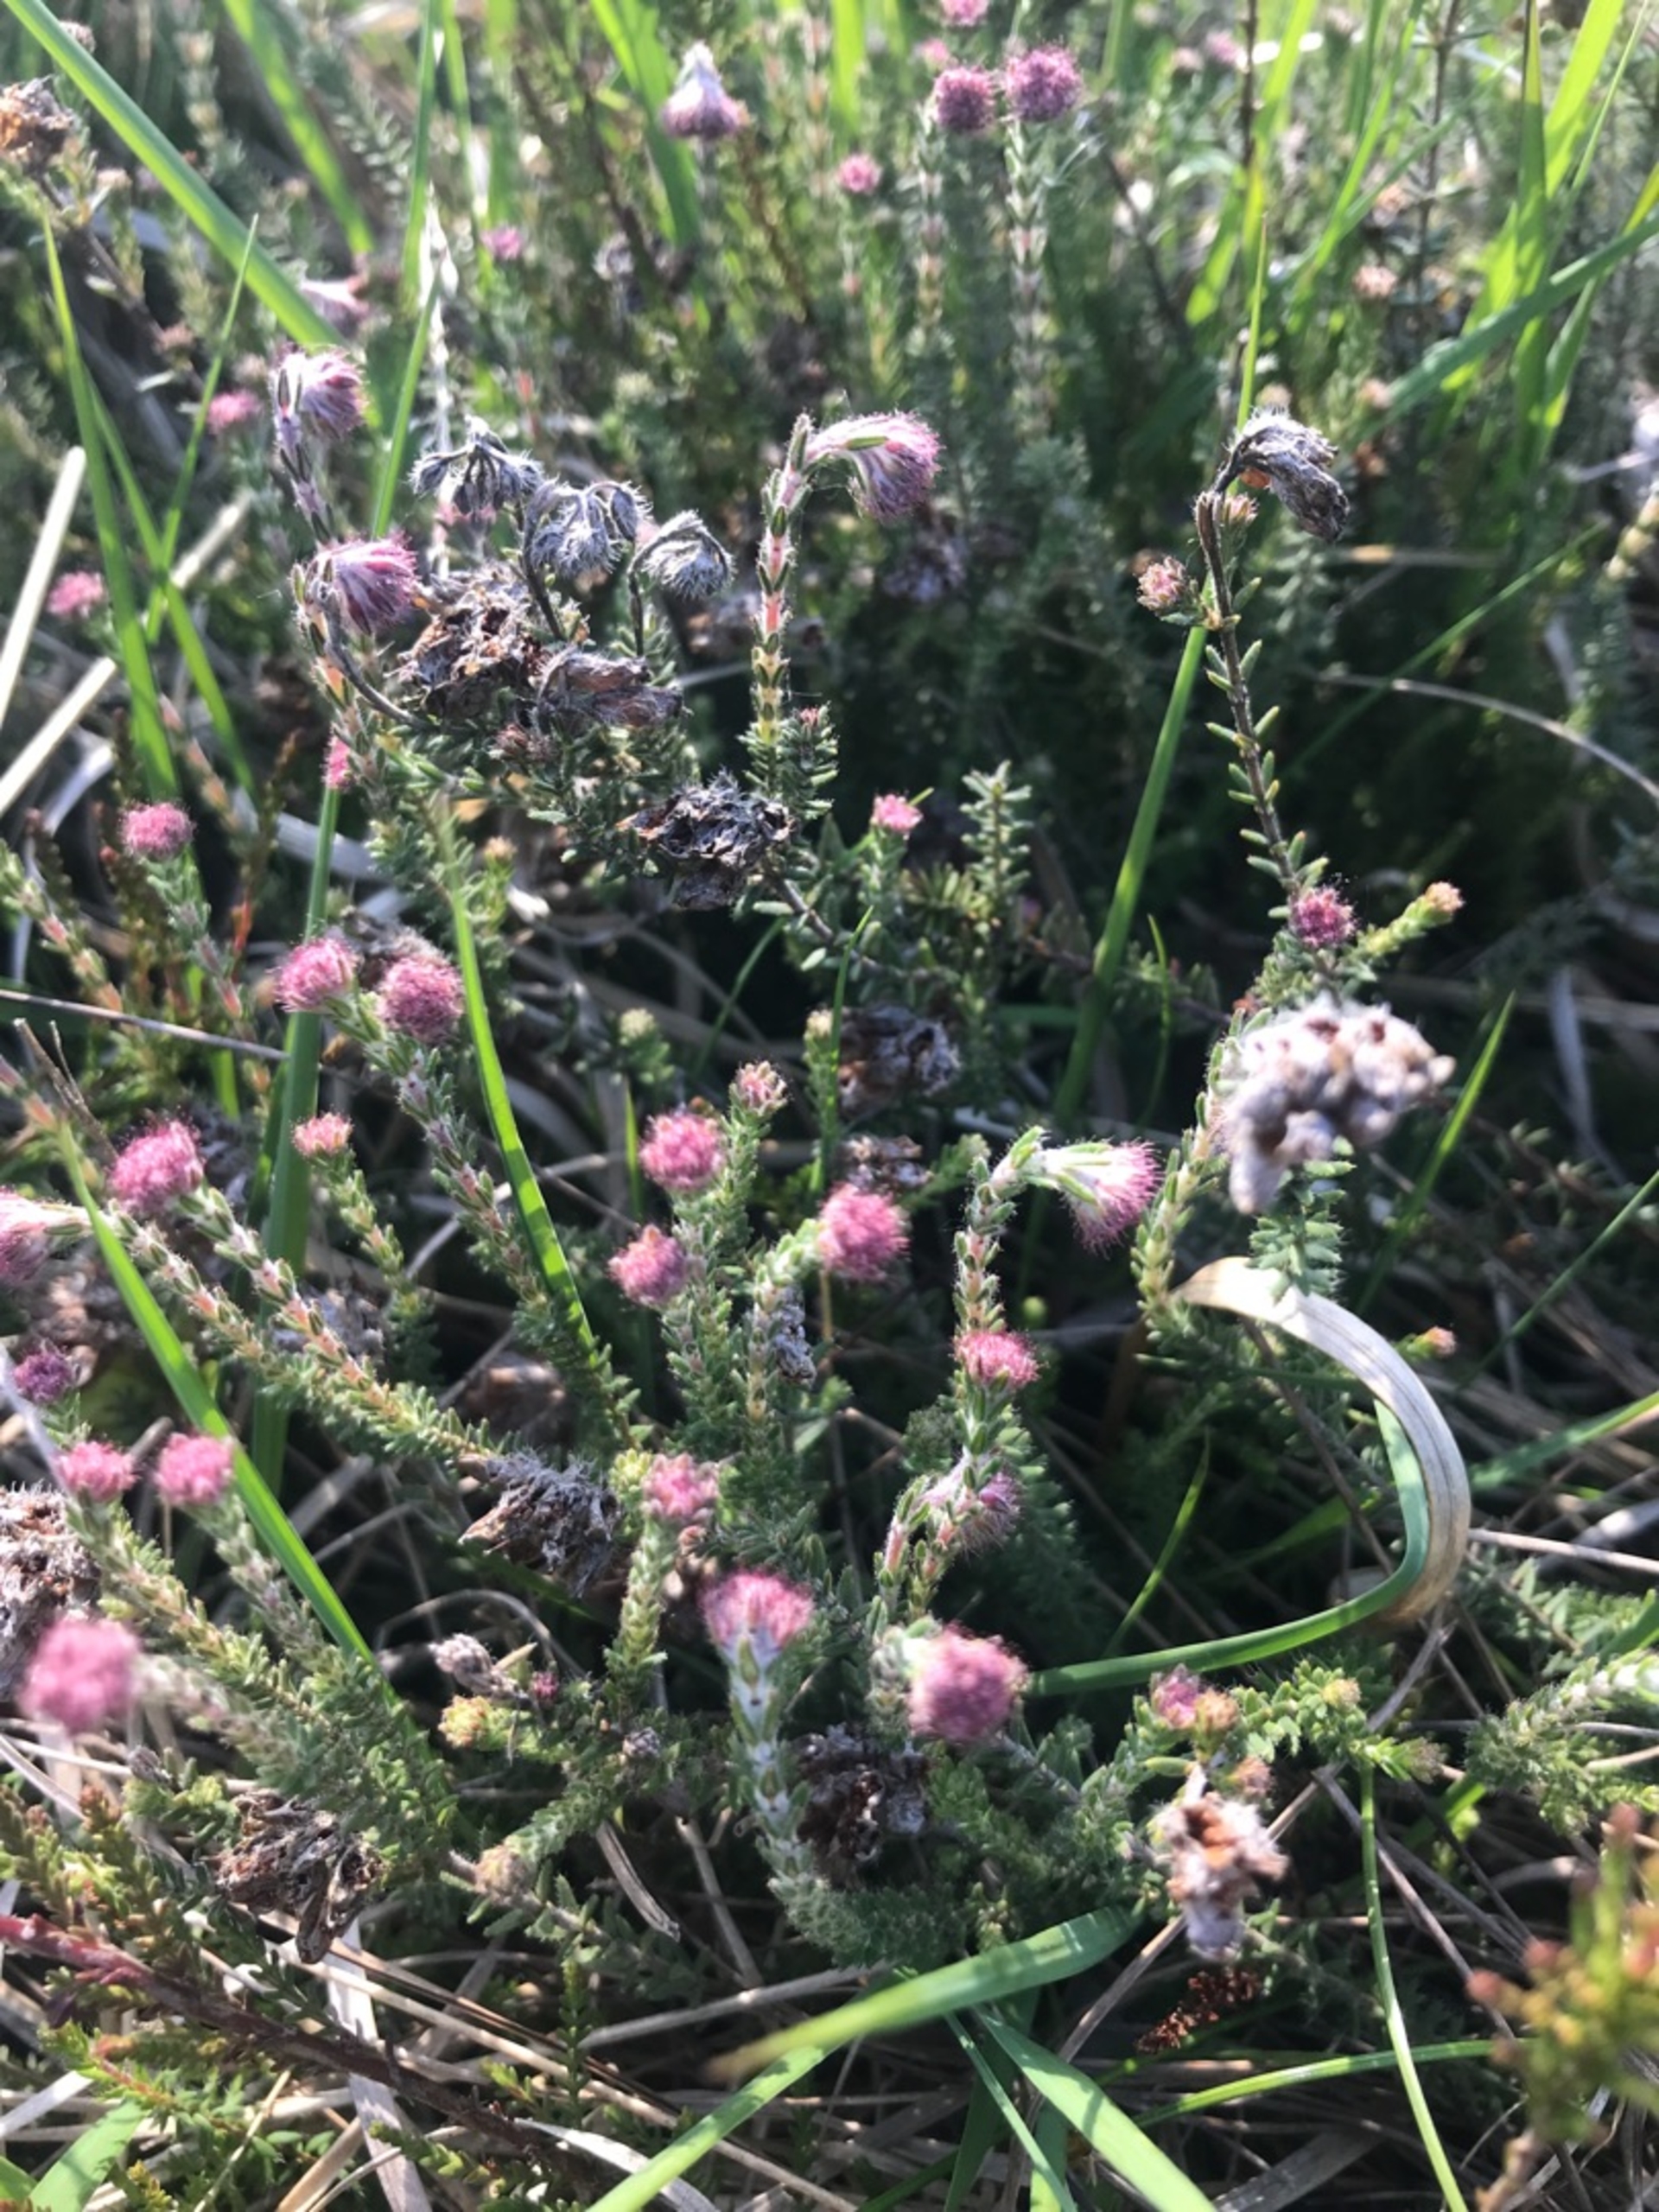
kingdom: Plantae
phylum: Tracheophyta
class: Magnoliopsida
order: Ericales
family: Ericaceae
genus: Erica
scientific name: Erica tetralix
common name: Klokkelyng
